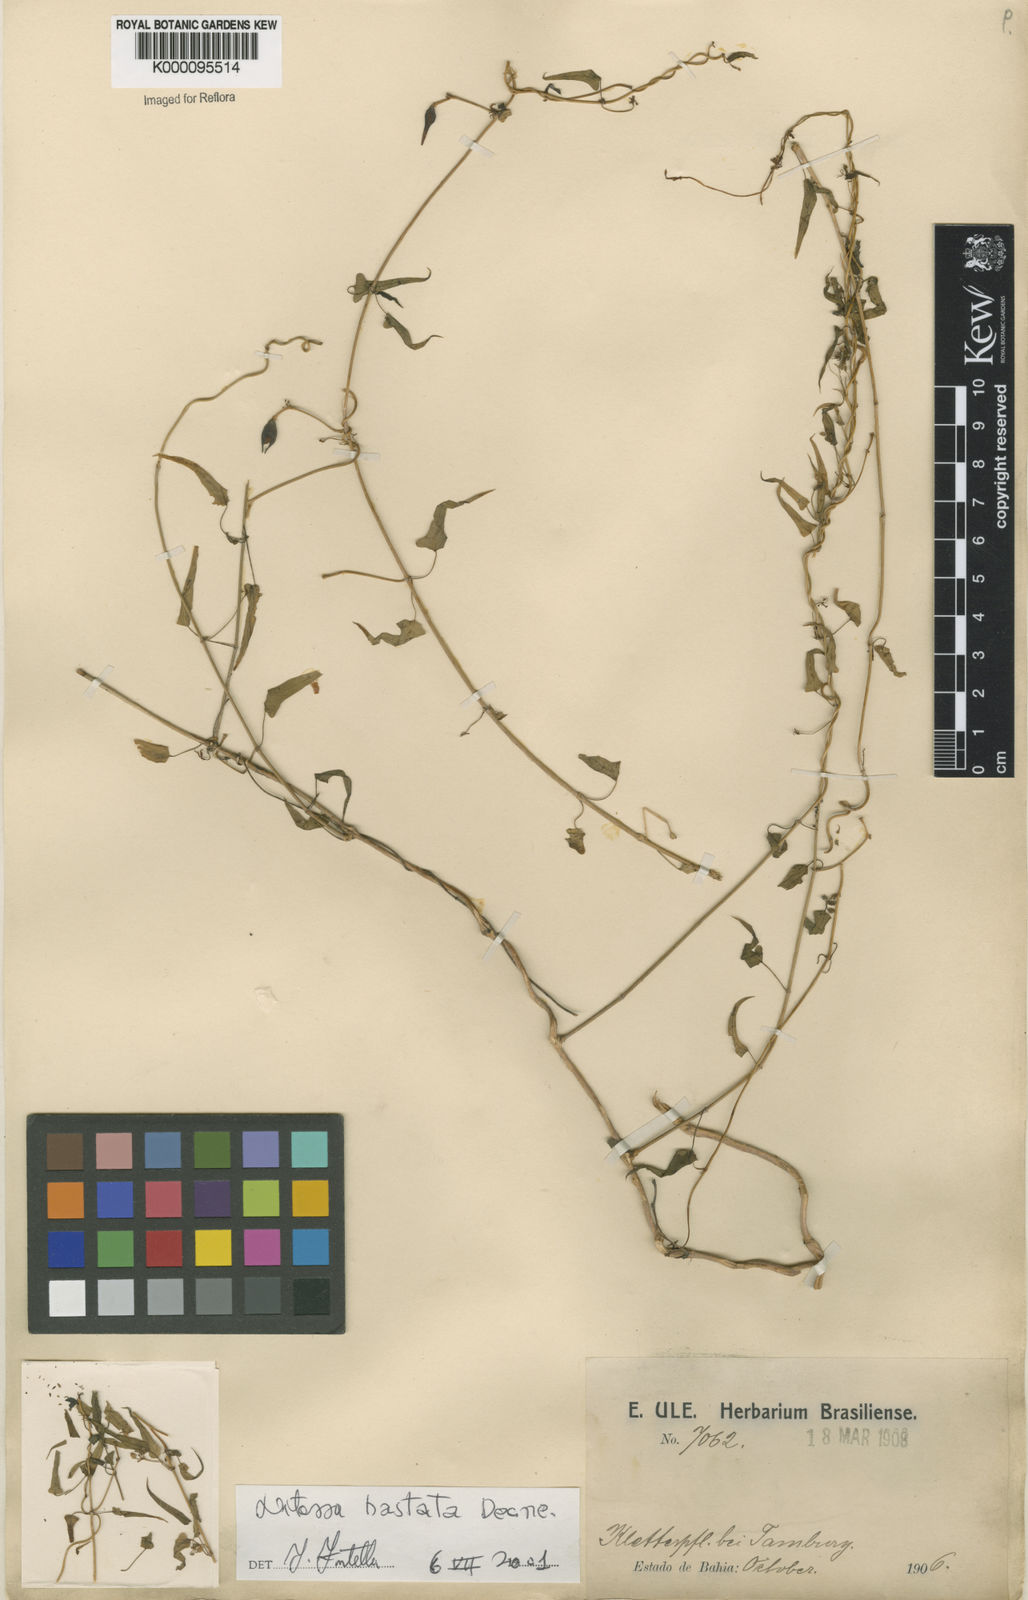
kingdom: Plantae
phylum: Tracheophyta
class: Magnoliopsida
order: Gentianales
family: Apocynaceae
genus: Ditassa
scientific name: Ditassa hastata
